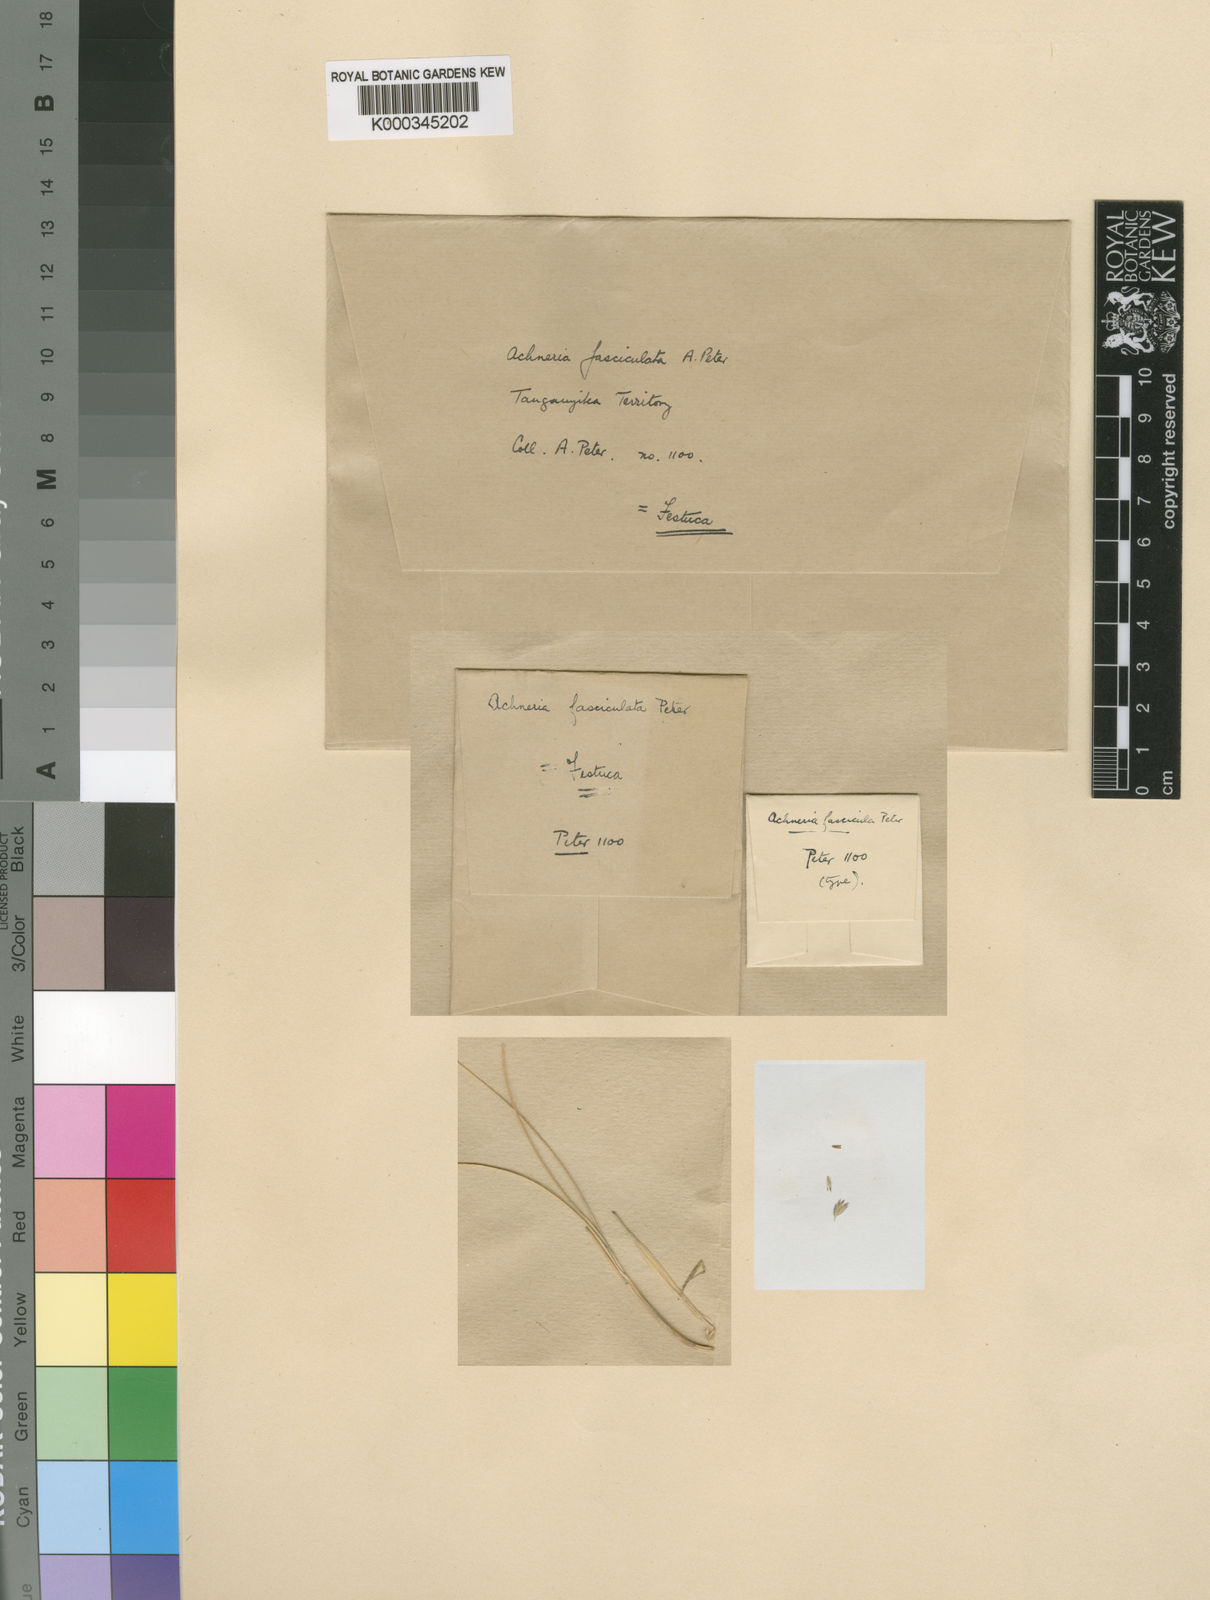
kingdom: Plantae
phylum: Tracheophyta
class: Liliopsida
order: Poales
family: Poaceae
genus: Poa
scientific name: Poa kilimanjarica
